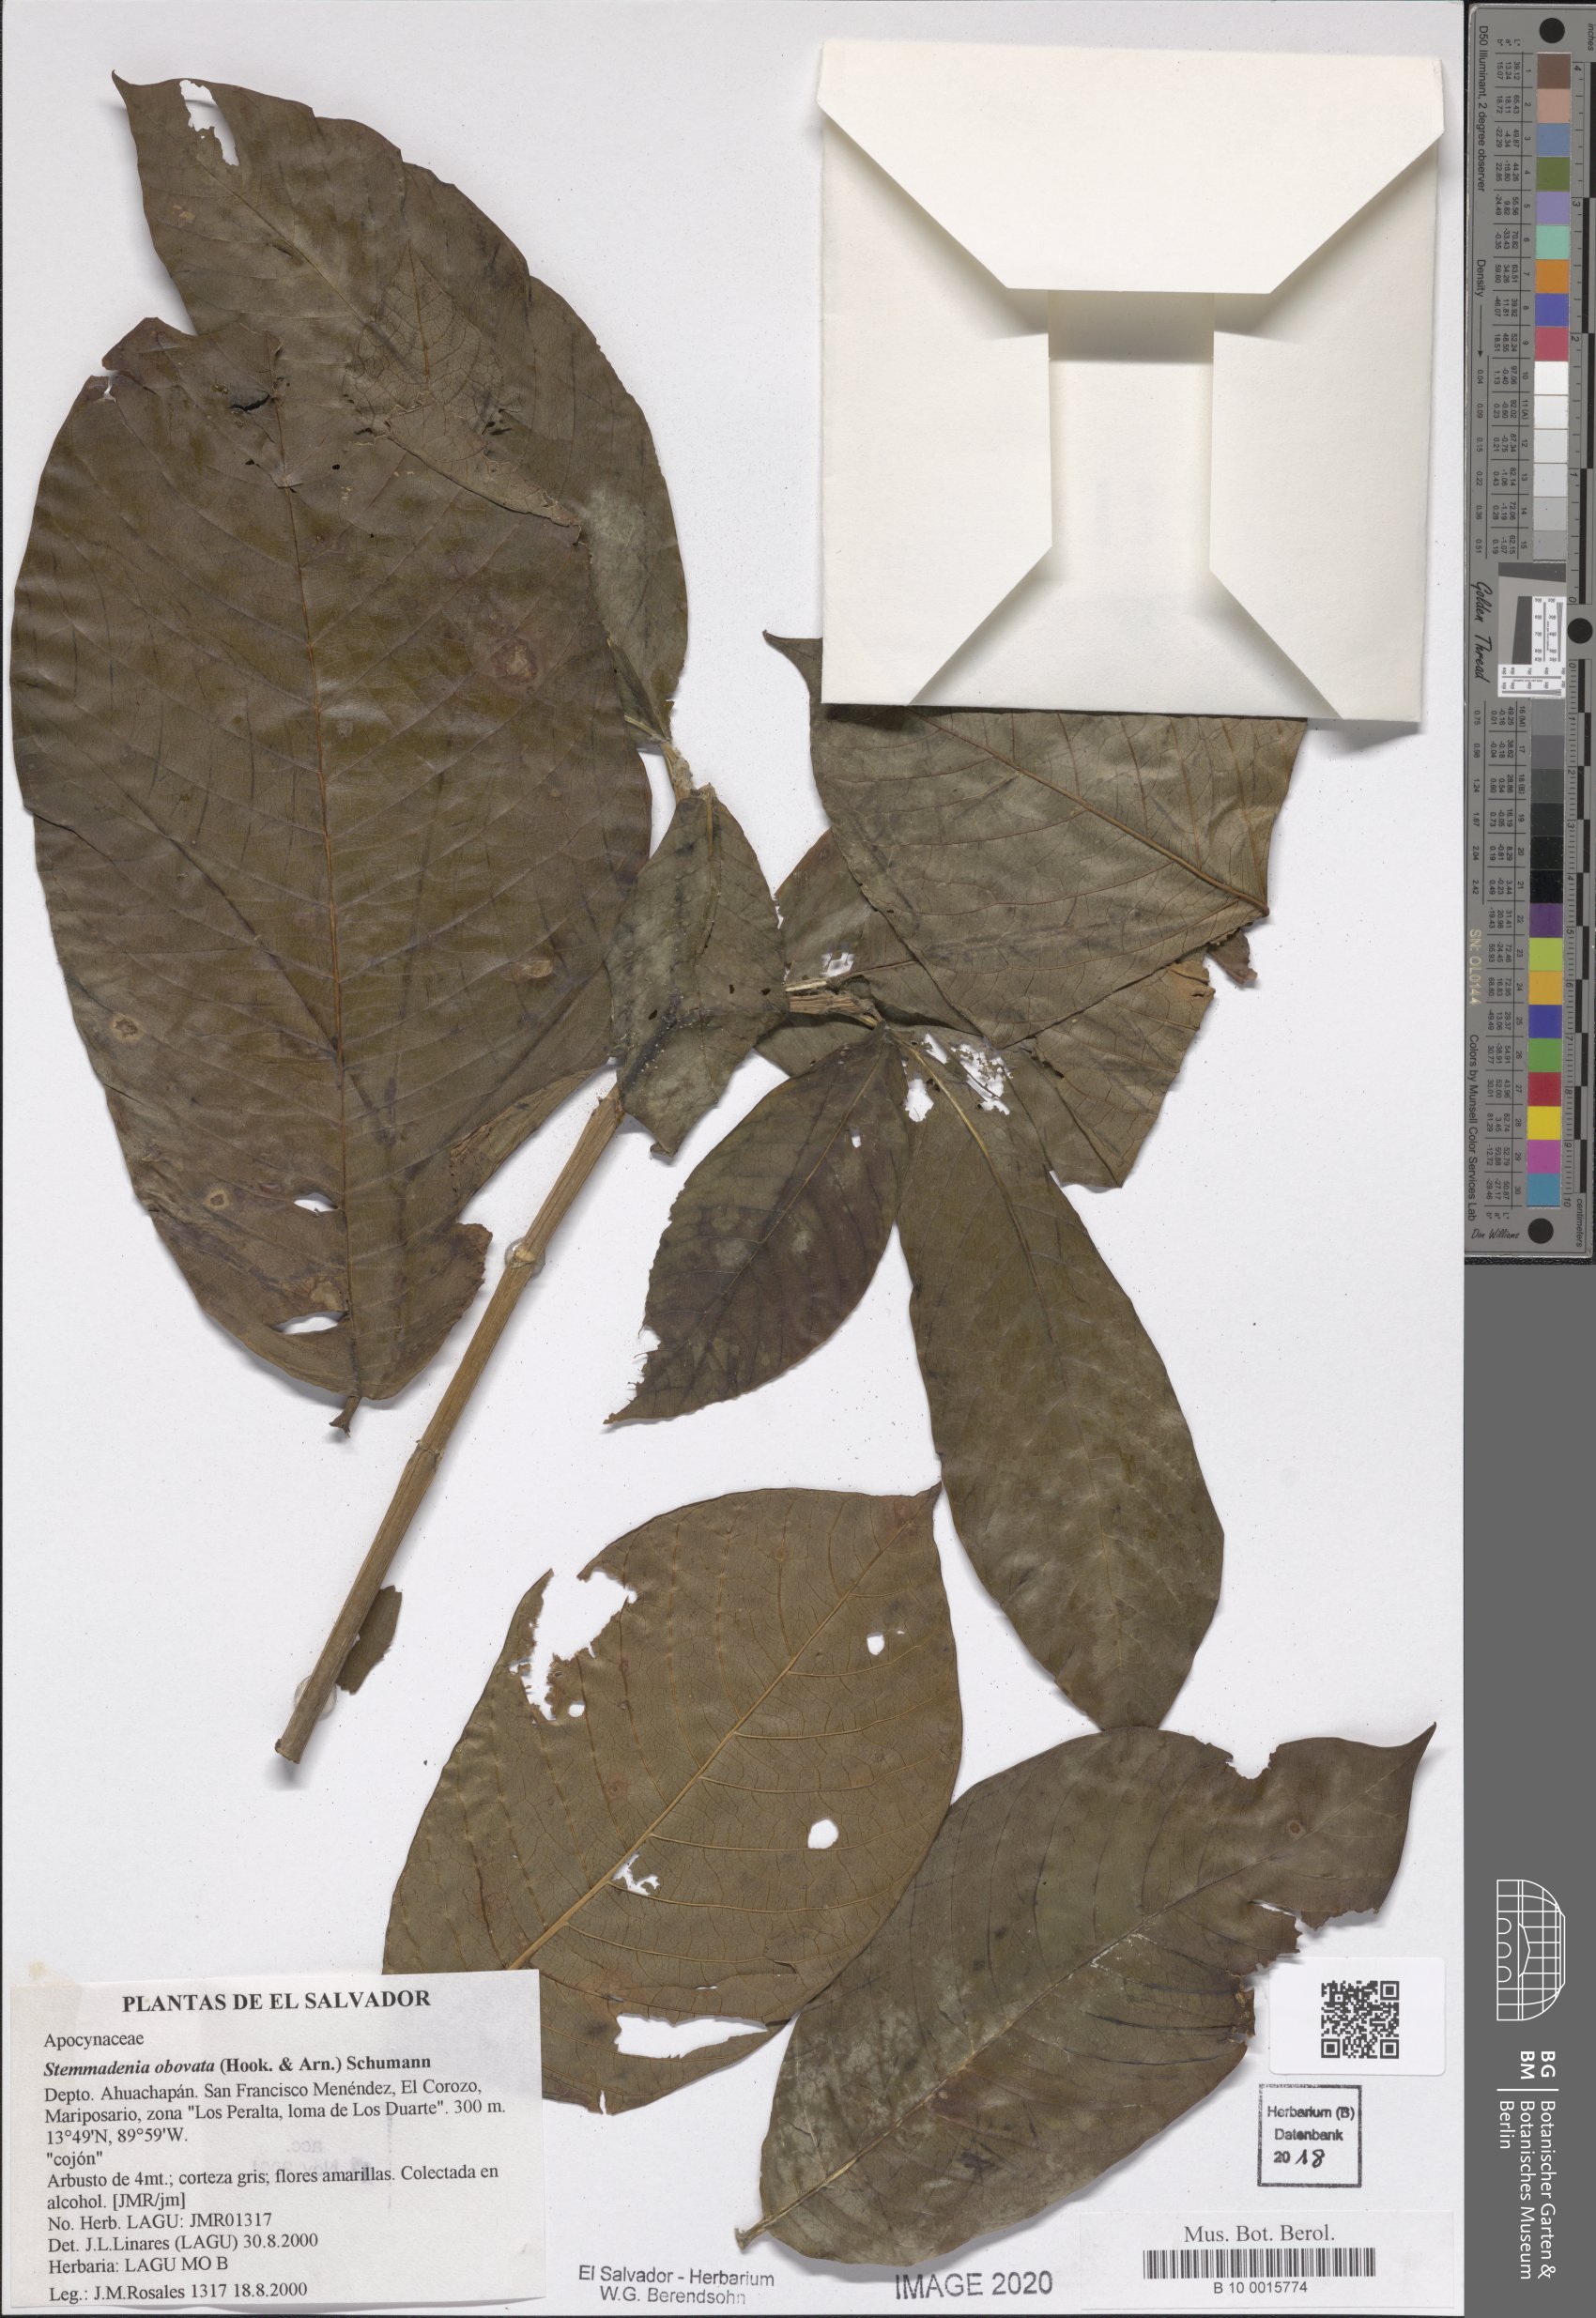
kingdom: Plantae
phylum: Tracheophyta
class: Magnoliopsida
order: Gentianales
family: Apocynaceae
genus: Tabernaemontana
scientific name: Tabernaemontana glabra
